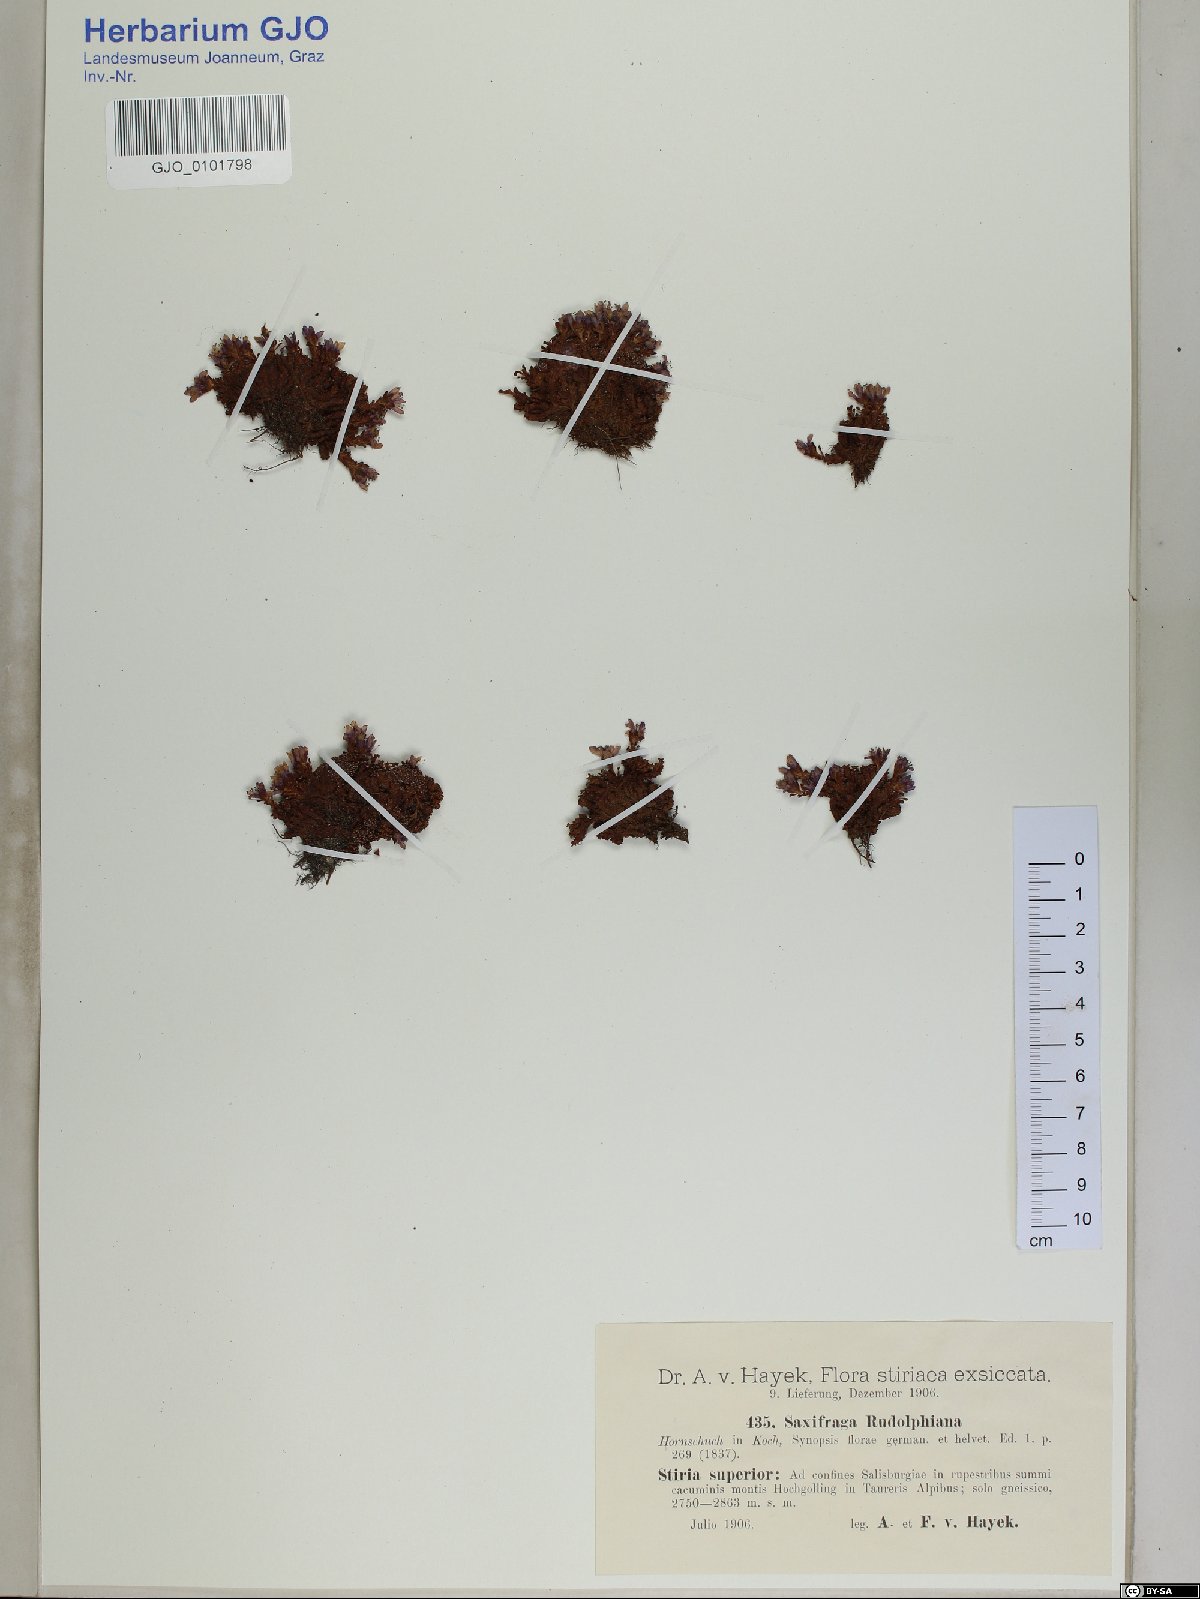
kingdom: Plantae
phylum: Tracheophyta
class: Magnoliopsida
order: Saxifragales
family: Saxifragaceae
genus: Saxifraga
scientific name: Saxifraga oppositifolia
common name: Purple saxifrage
